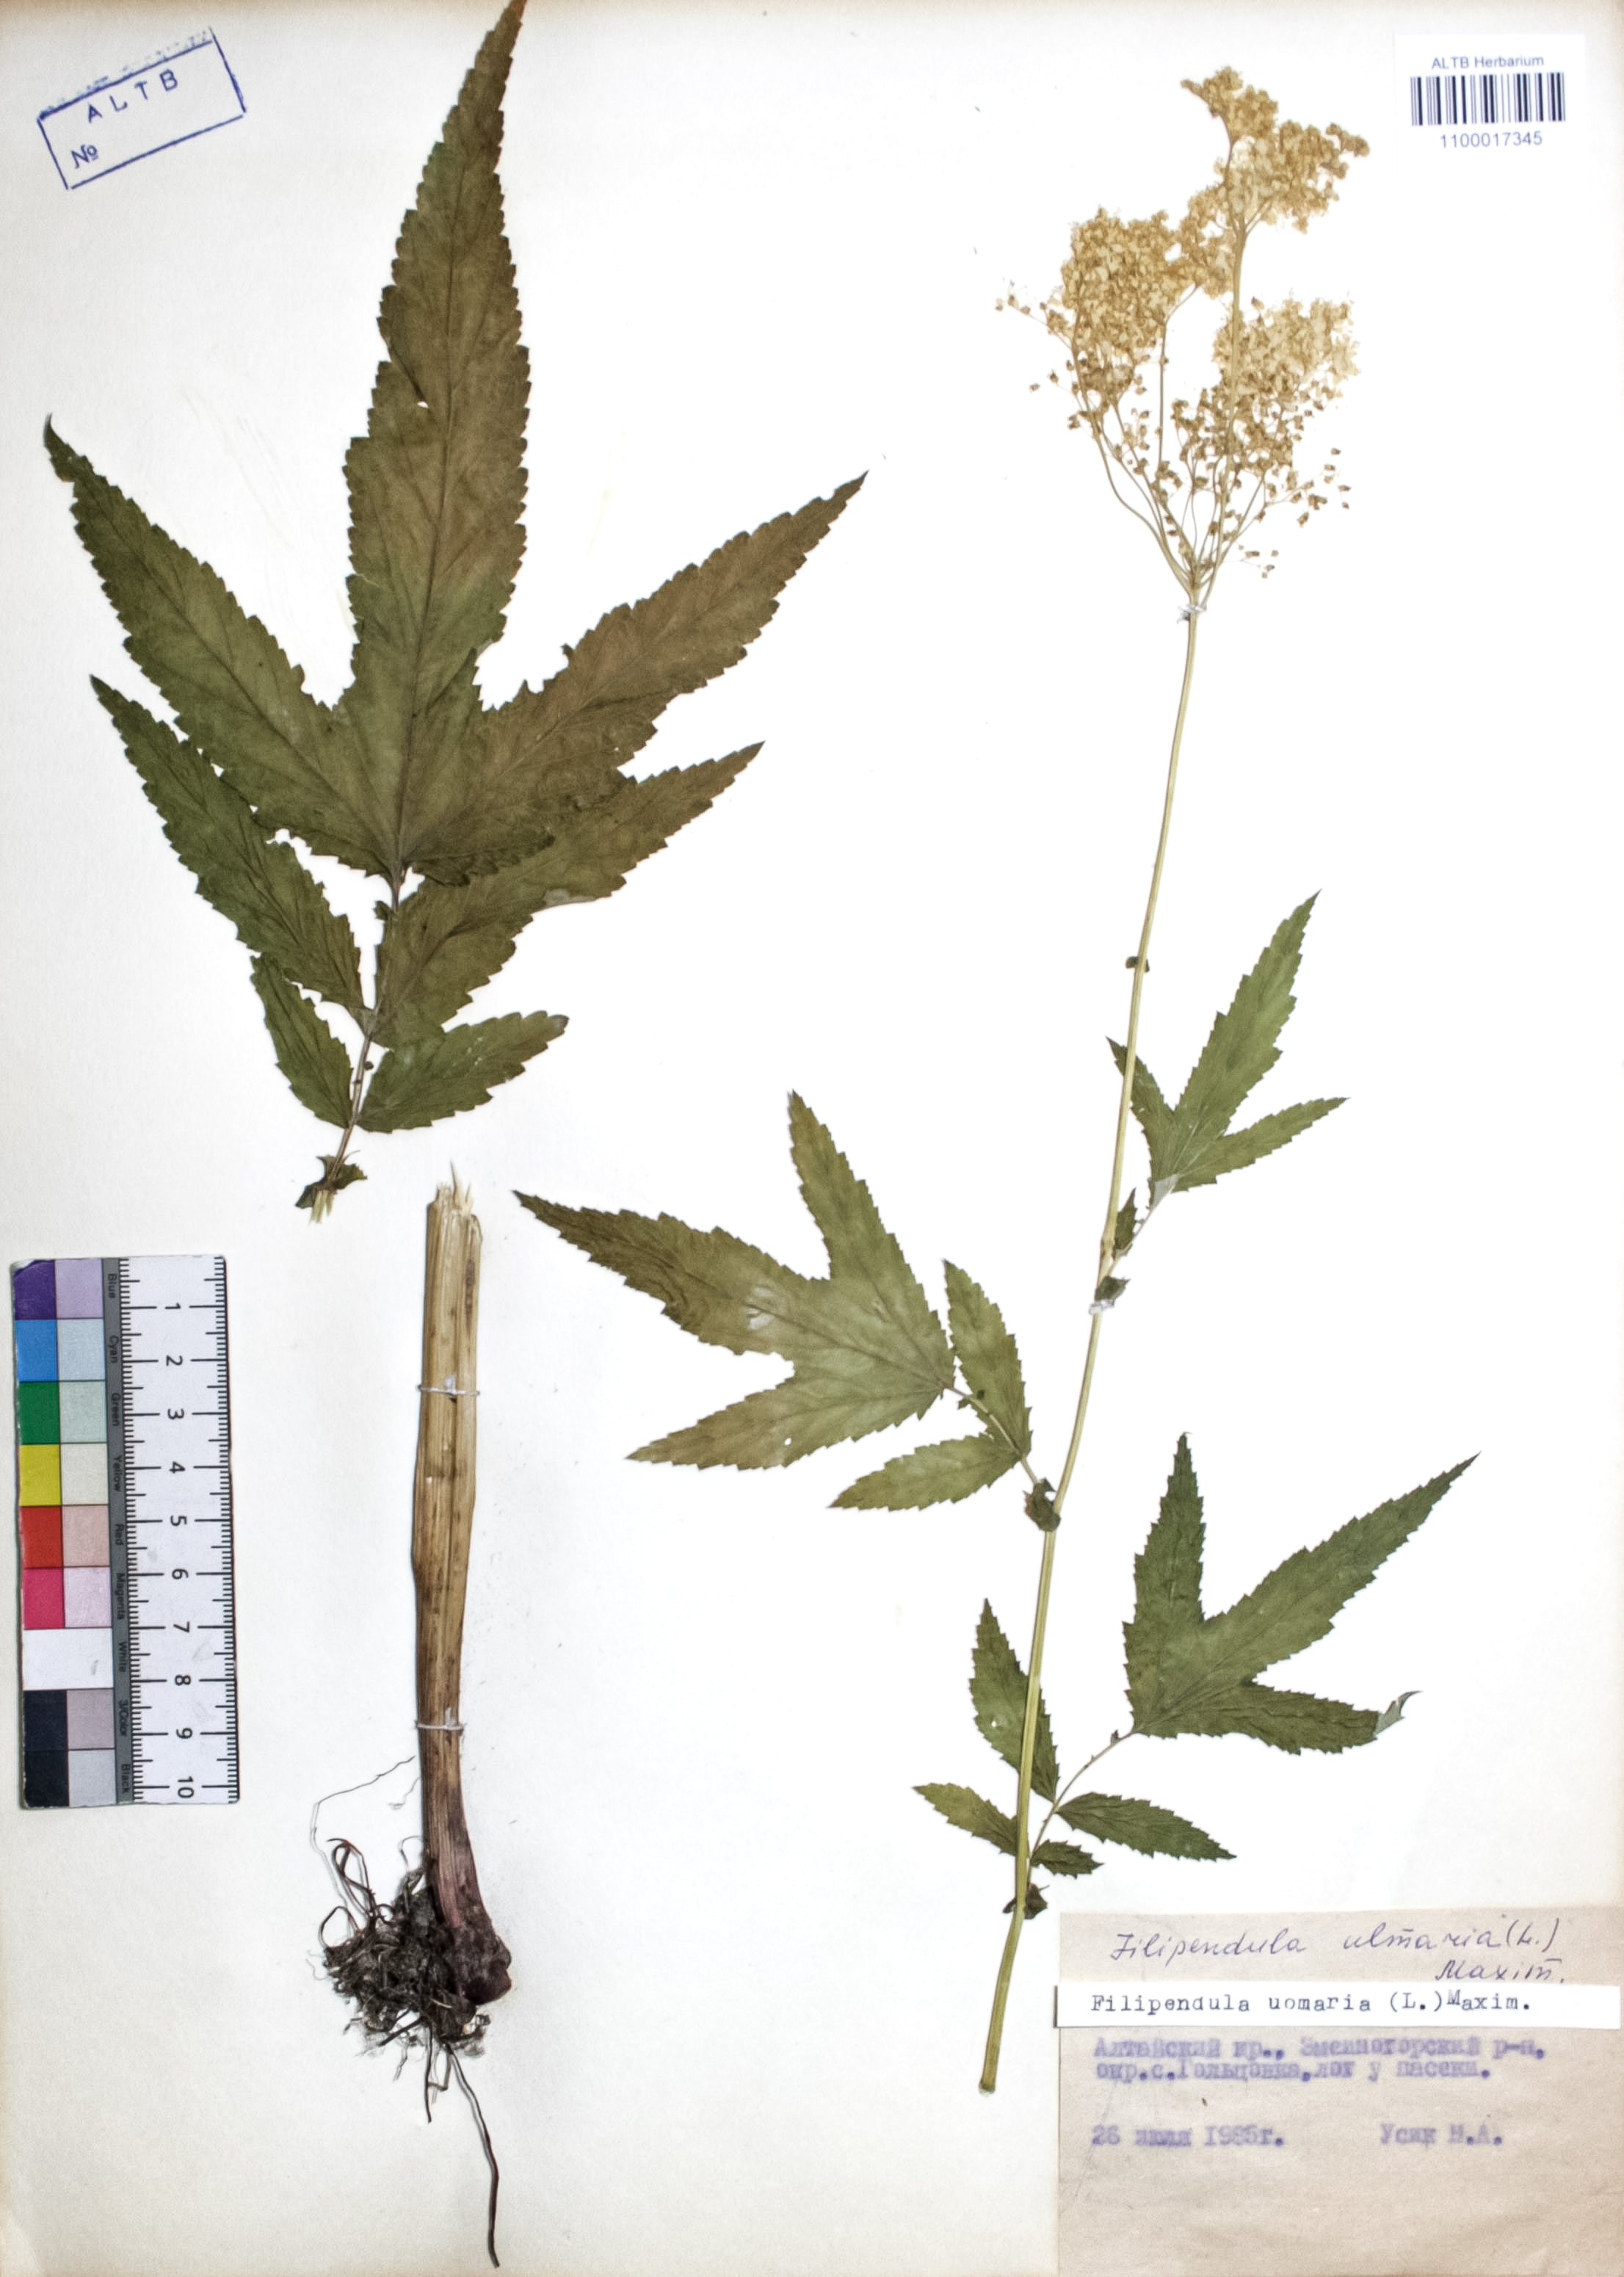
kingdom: Plantae
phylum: Tracheophyta
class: Magnoliopsida
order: Rosales
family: Rosaceae
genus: Filipendula
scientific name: Filipendula ulmaria
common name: Meadowsweet
